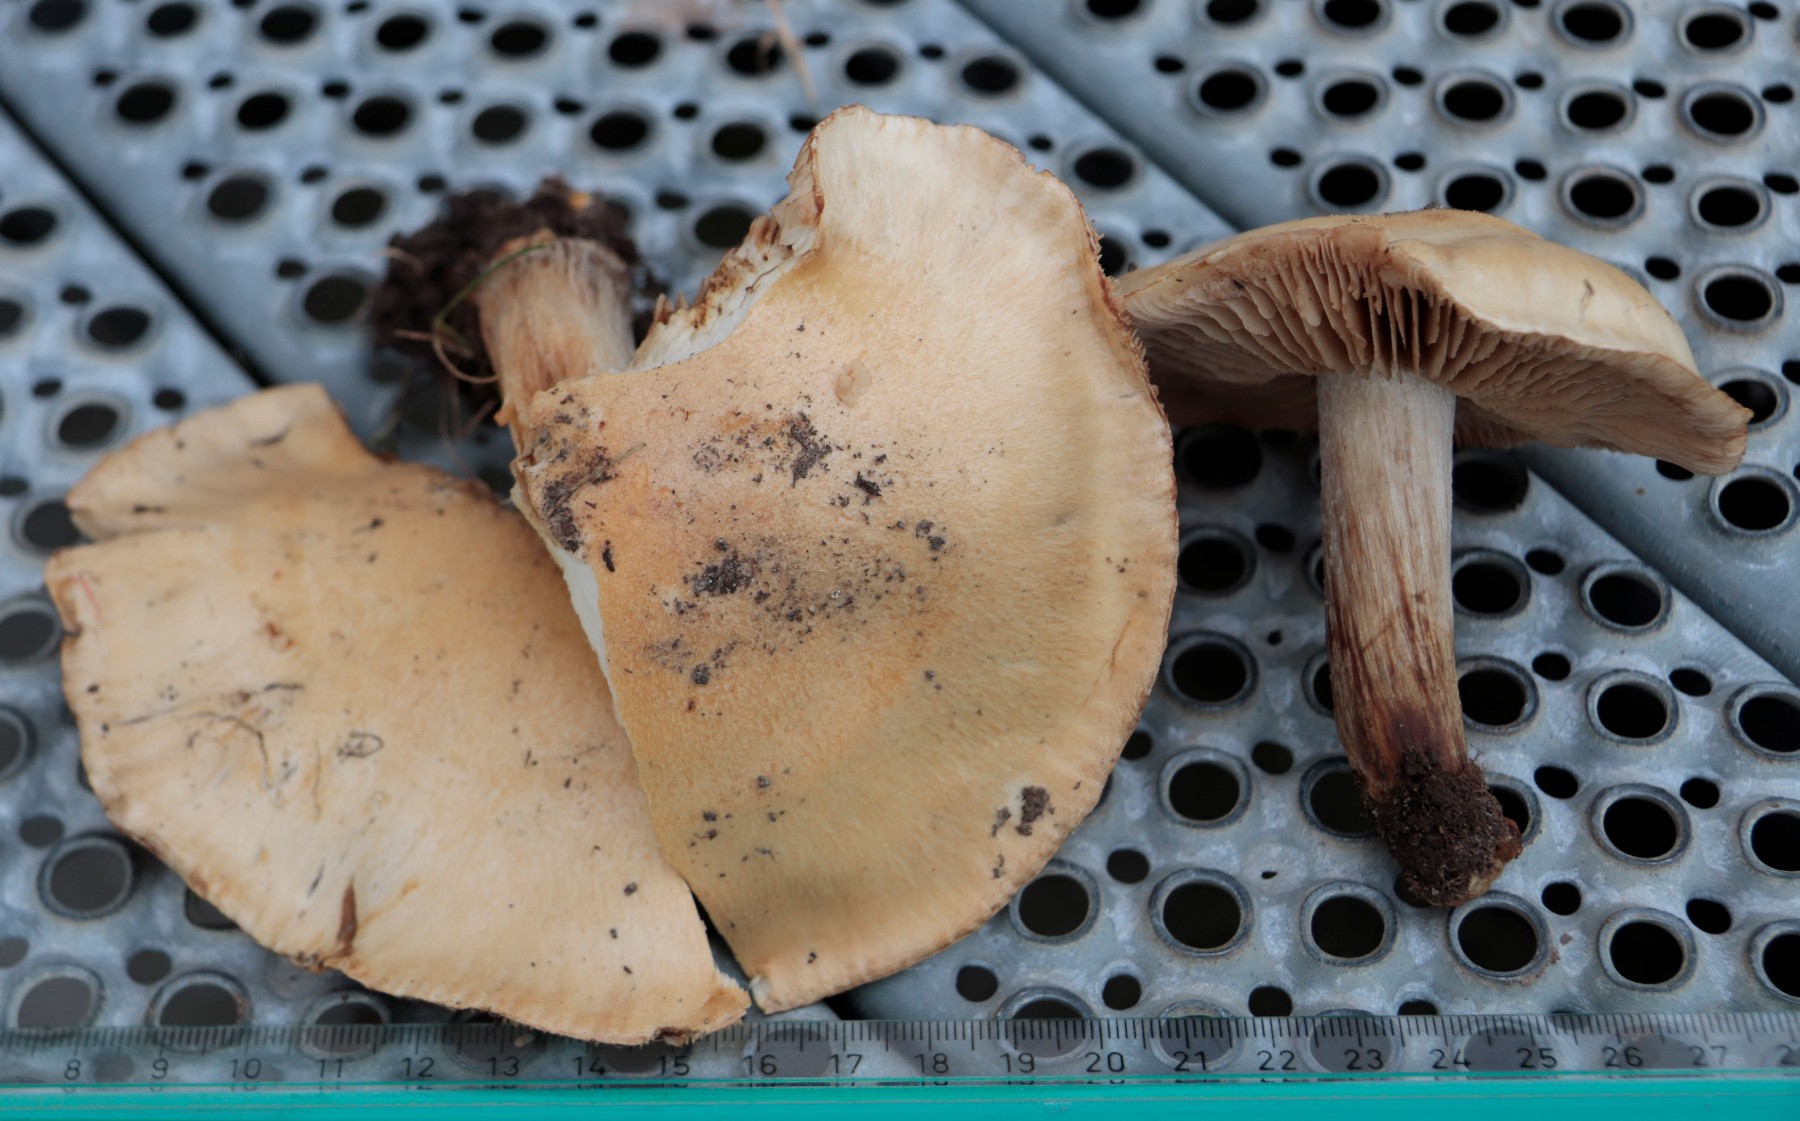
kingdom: Fungi
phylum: Basidiomycota
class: Agaricomycetes
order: Agaricales
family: Hymenogastraceae
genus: Hebeloma
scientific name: Hebeloma laterinum
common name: kakao-tåreblad
